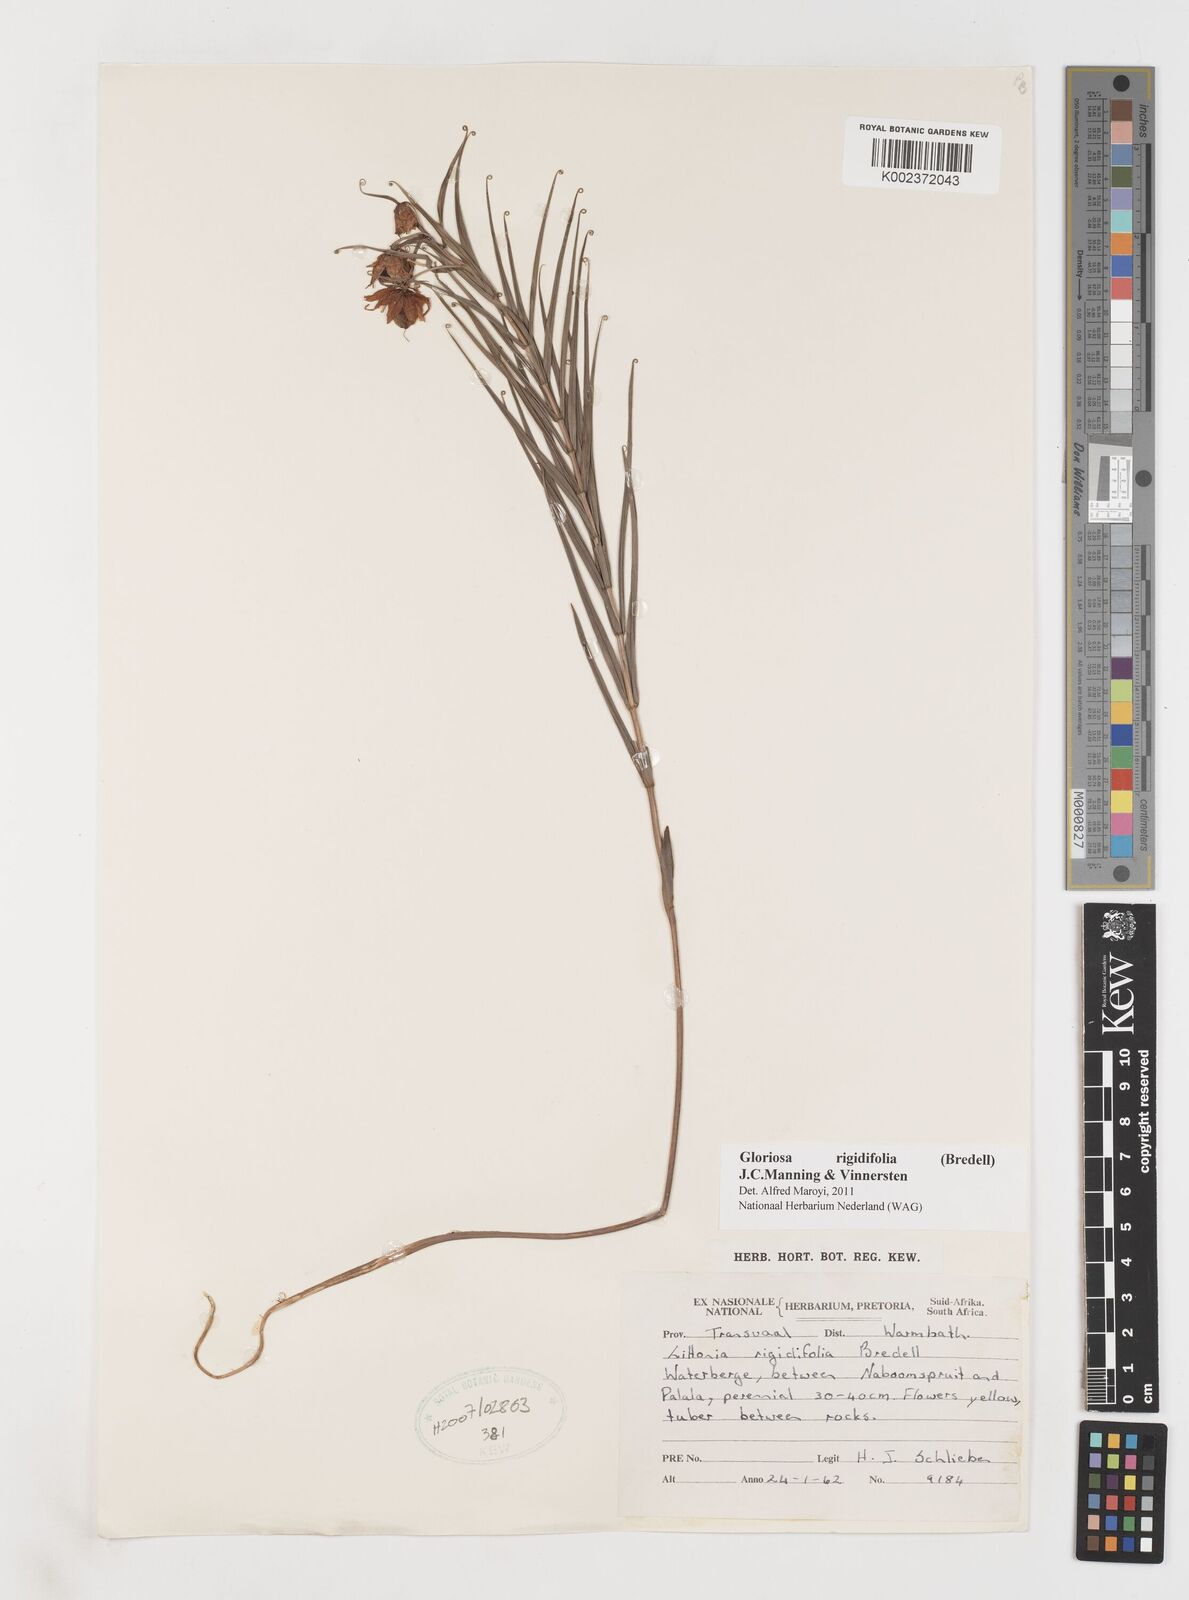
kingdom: Plantae
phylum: Tracheophyta
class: Liliopsida
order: Liliales
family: Colchicaceae
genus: Gloriosa
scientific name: Gloriosa rigidifolia
